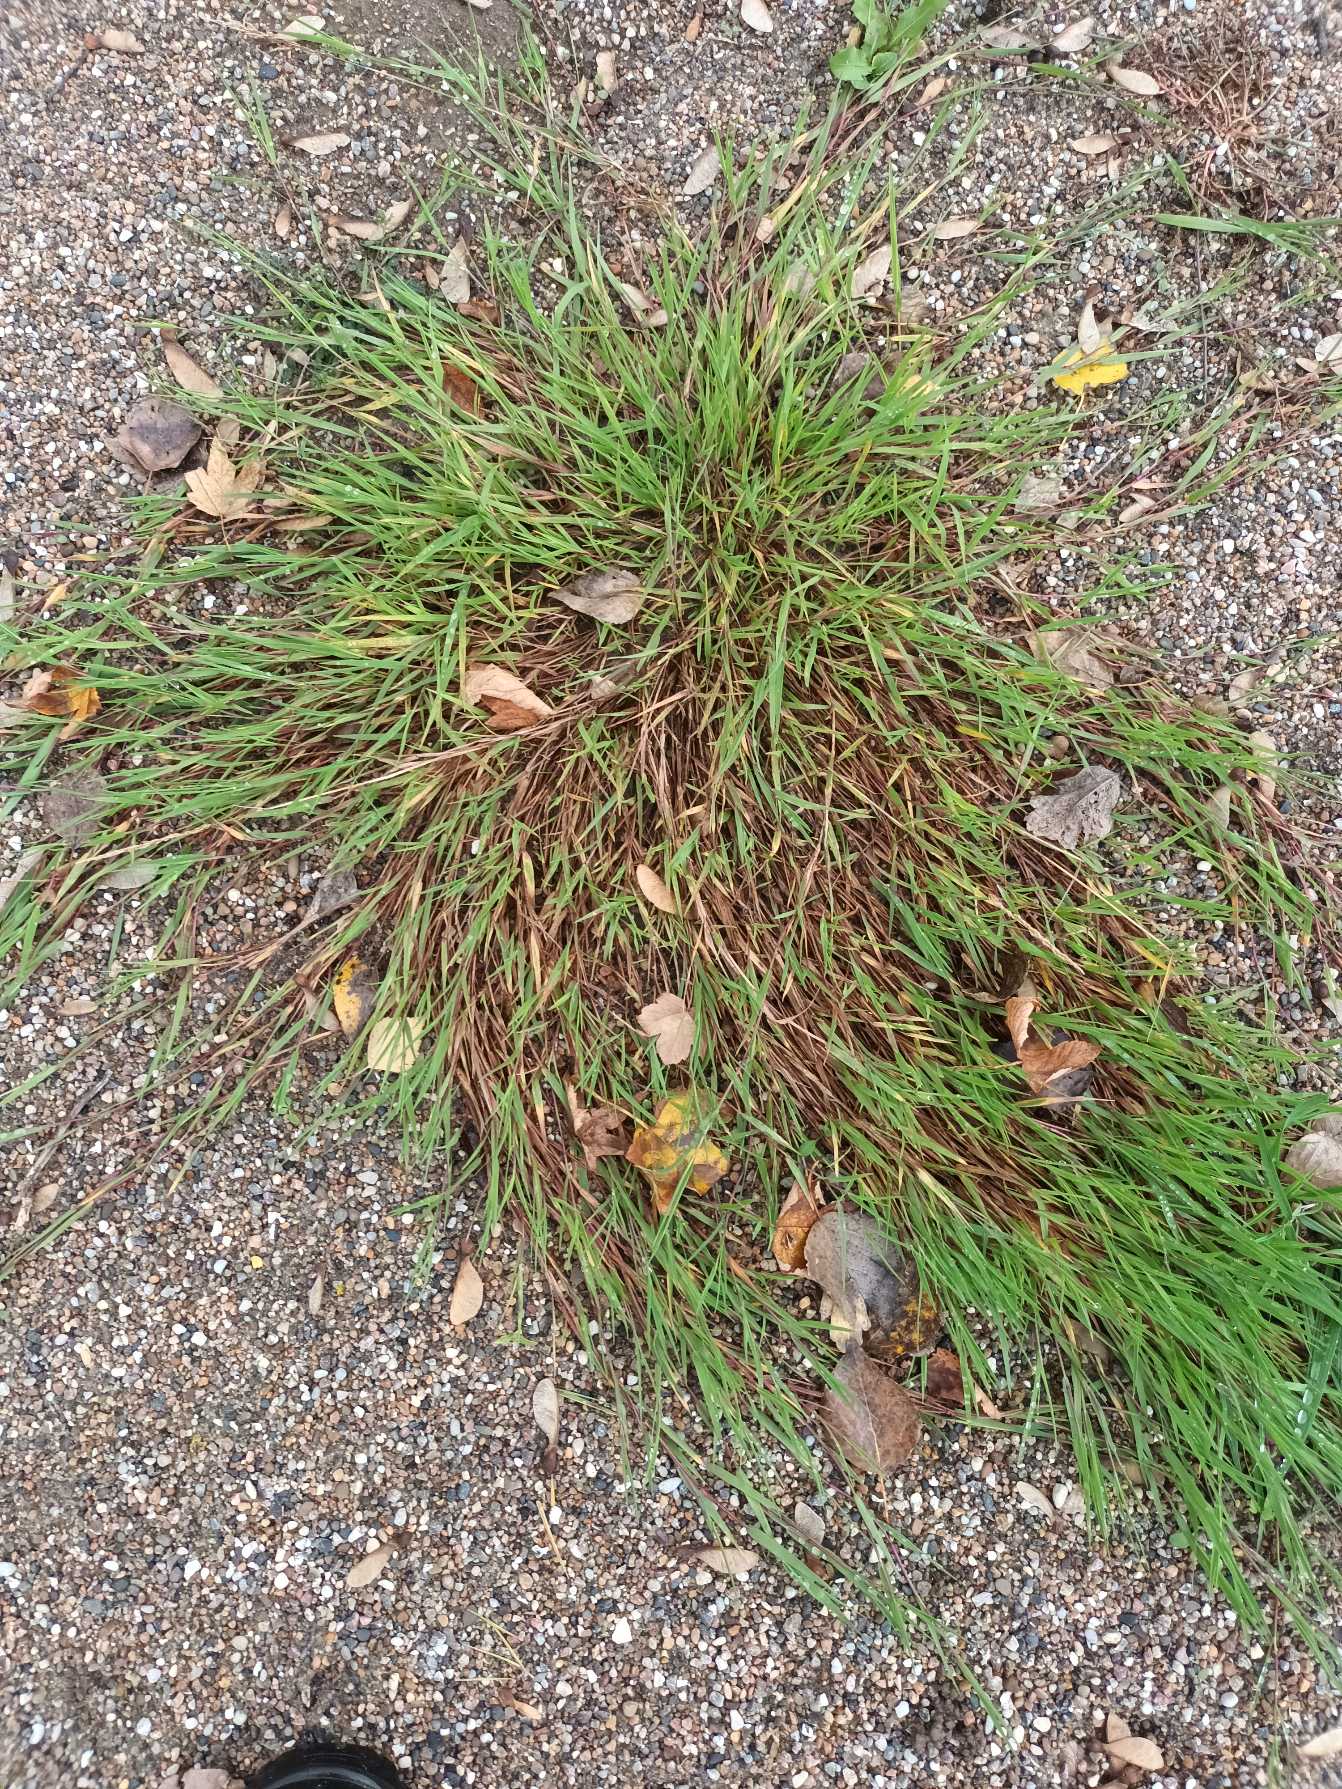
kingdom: Plantae
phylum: Tracheophyta
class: Liliopsida
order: Poales
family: Poaceae
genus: Agrostis
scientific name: Agrostis stolonifera
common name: Kryb-hvene
